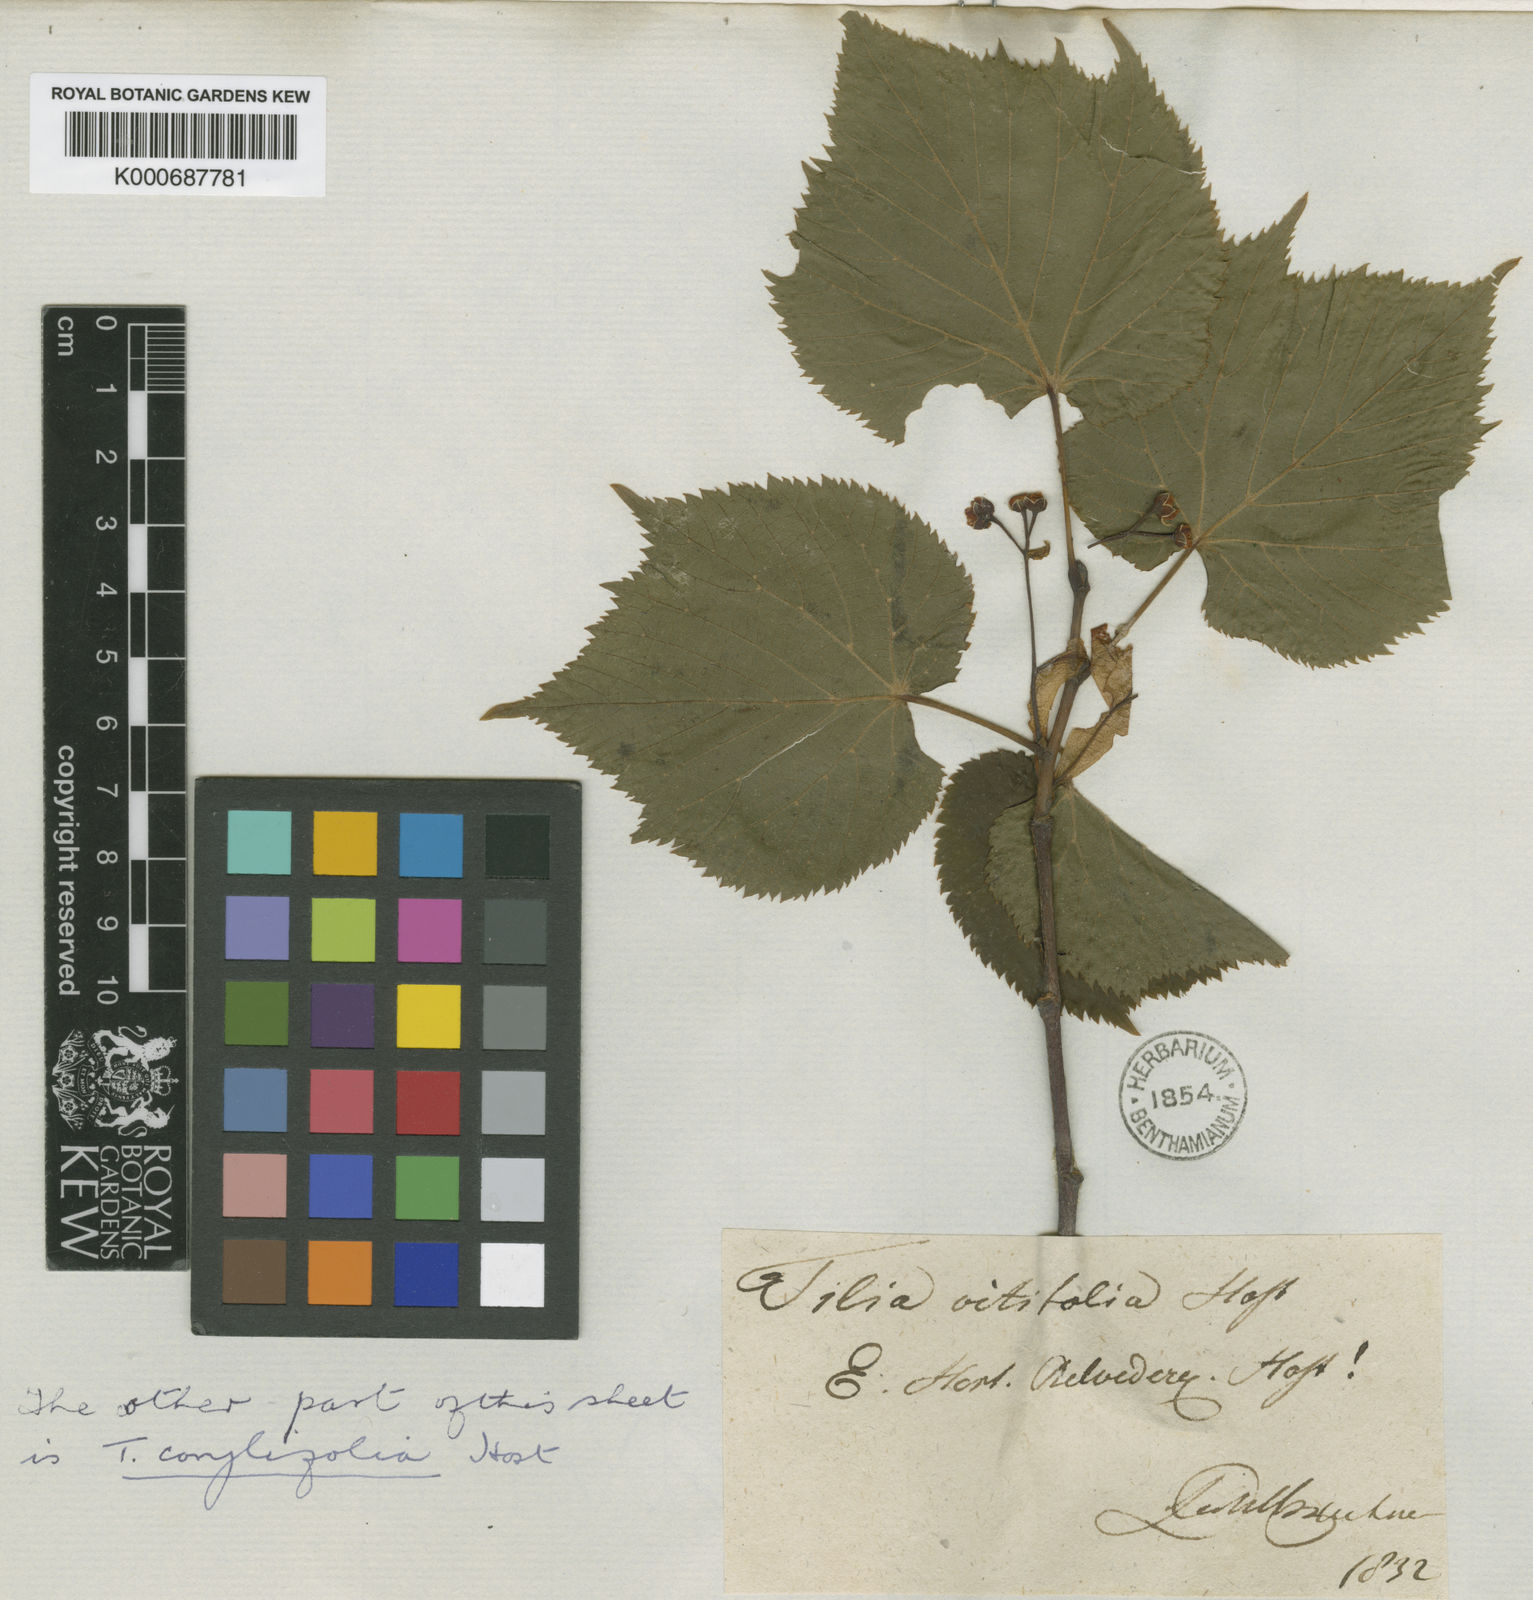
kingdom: Plantae
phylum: Tracheophyta
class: Magnoliopsida
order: Malvales
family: Malvaceae
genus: Tilia
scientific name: Tilia platyphyllos
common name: Large-leaved lime
